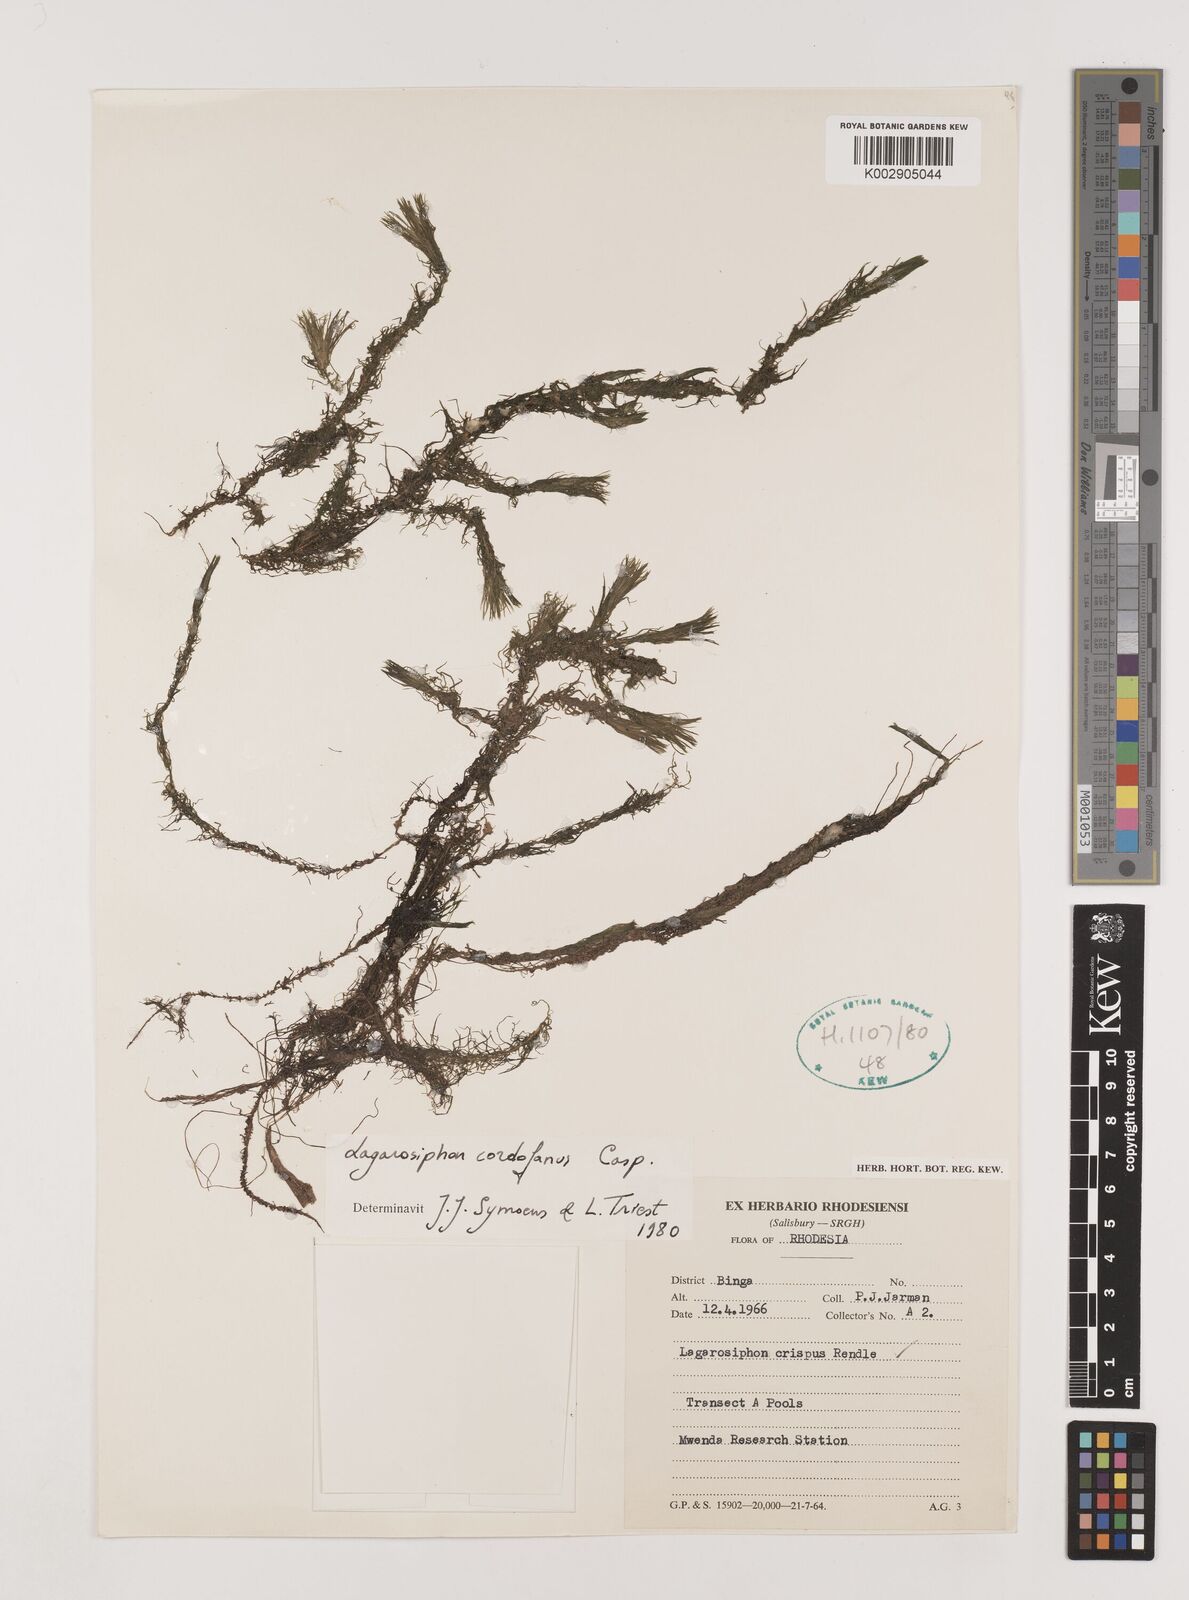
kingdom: Plantae
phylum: Tracheophyta
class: Liliopsida
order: Alismatales
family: Hydrocharitaceae
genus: Lagarosiphon
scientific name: Lagarosiphon cordofanus
